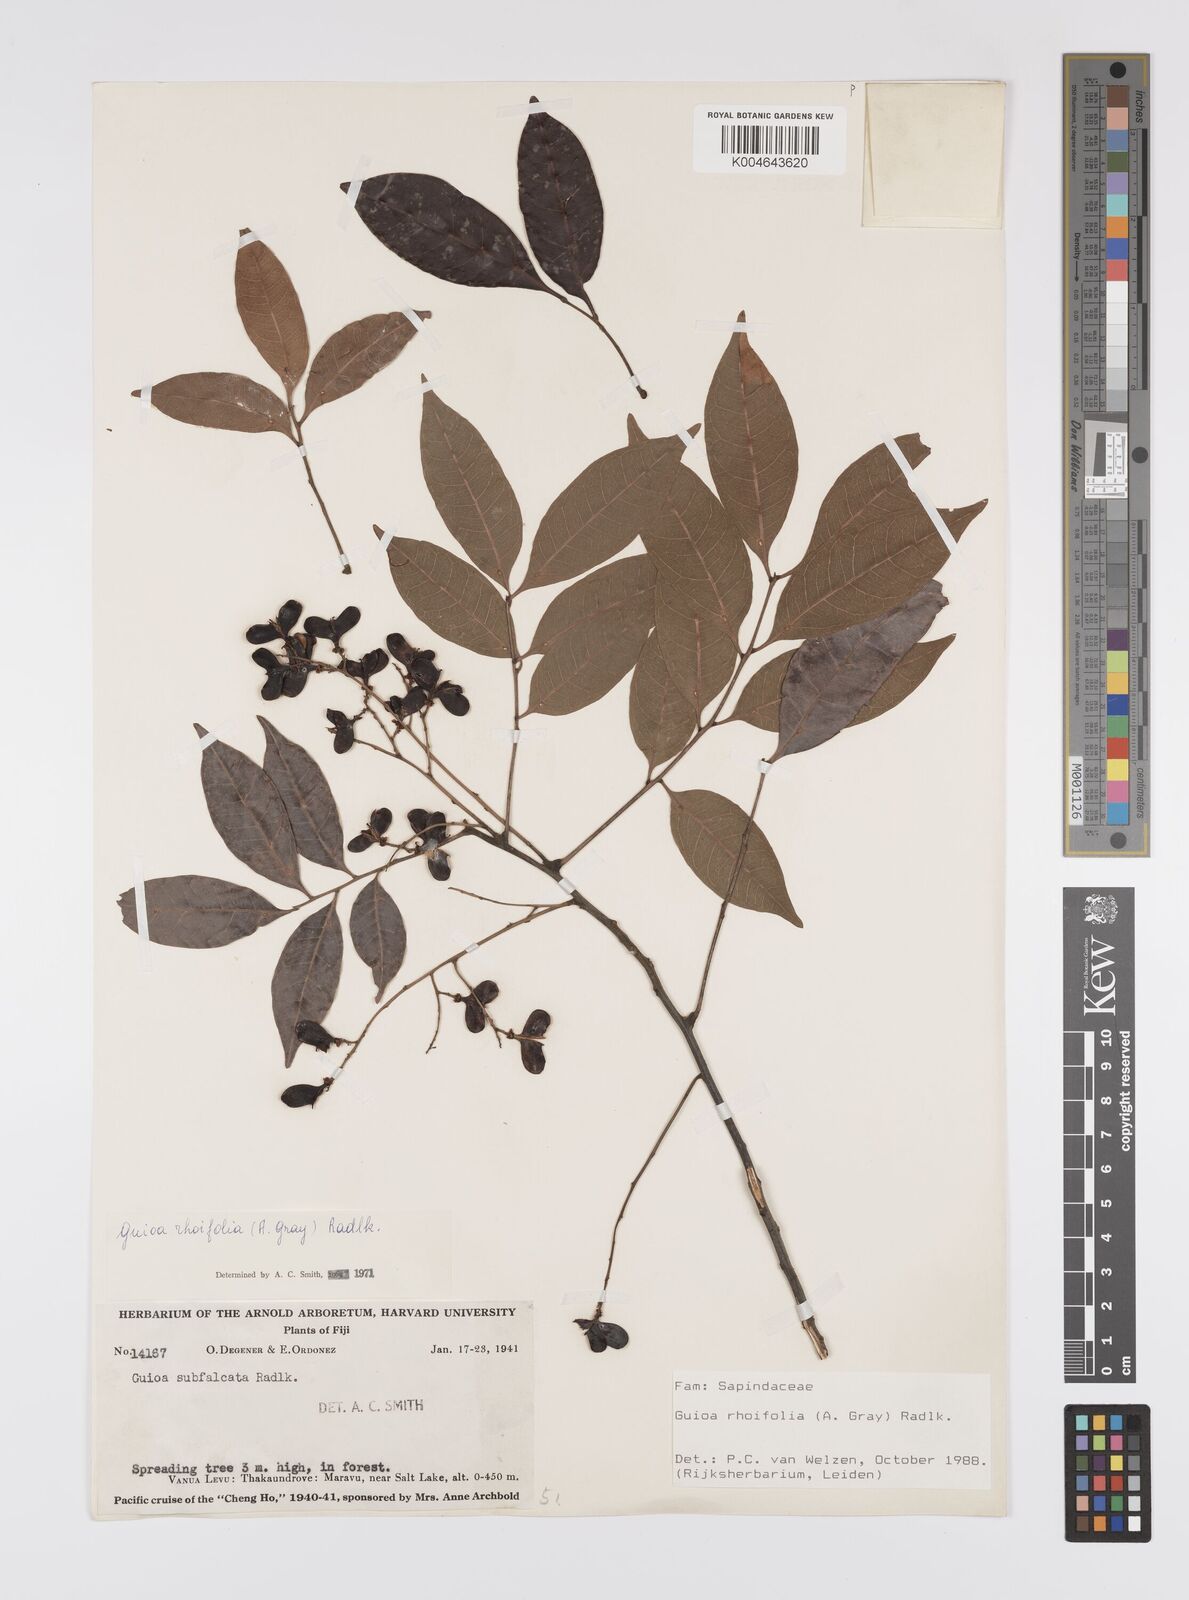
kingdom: Plantae
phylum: Tracheophyta
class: Magnoliopsida
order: Sapindales
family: Sapindaceae
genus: Guioa
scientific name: Guioa rhoifolia
